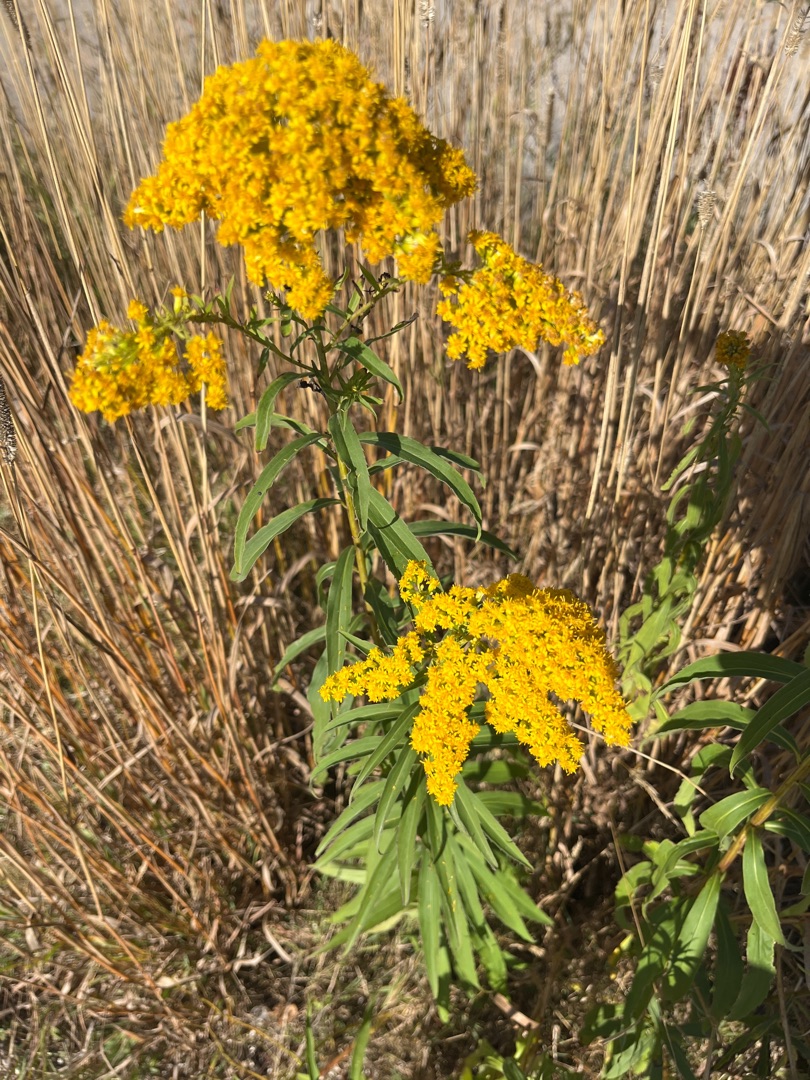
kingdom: Plantae
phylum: Tracheophyta
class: Magnoliopsida
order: Asterales
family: Asteraceae
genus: Solidago
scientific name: Solidago gigantea
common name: Sildig gyldenris
